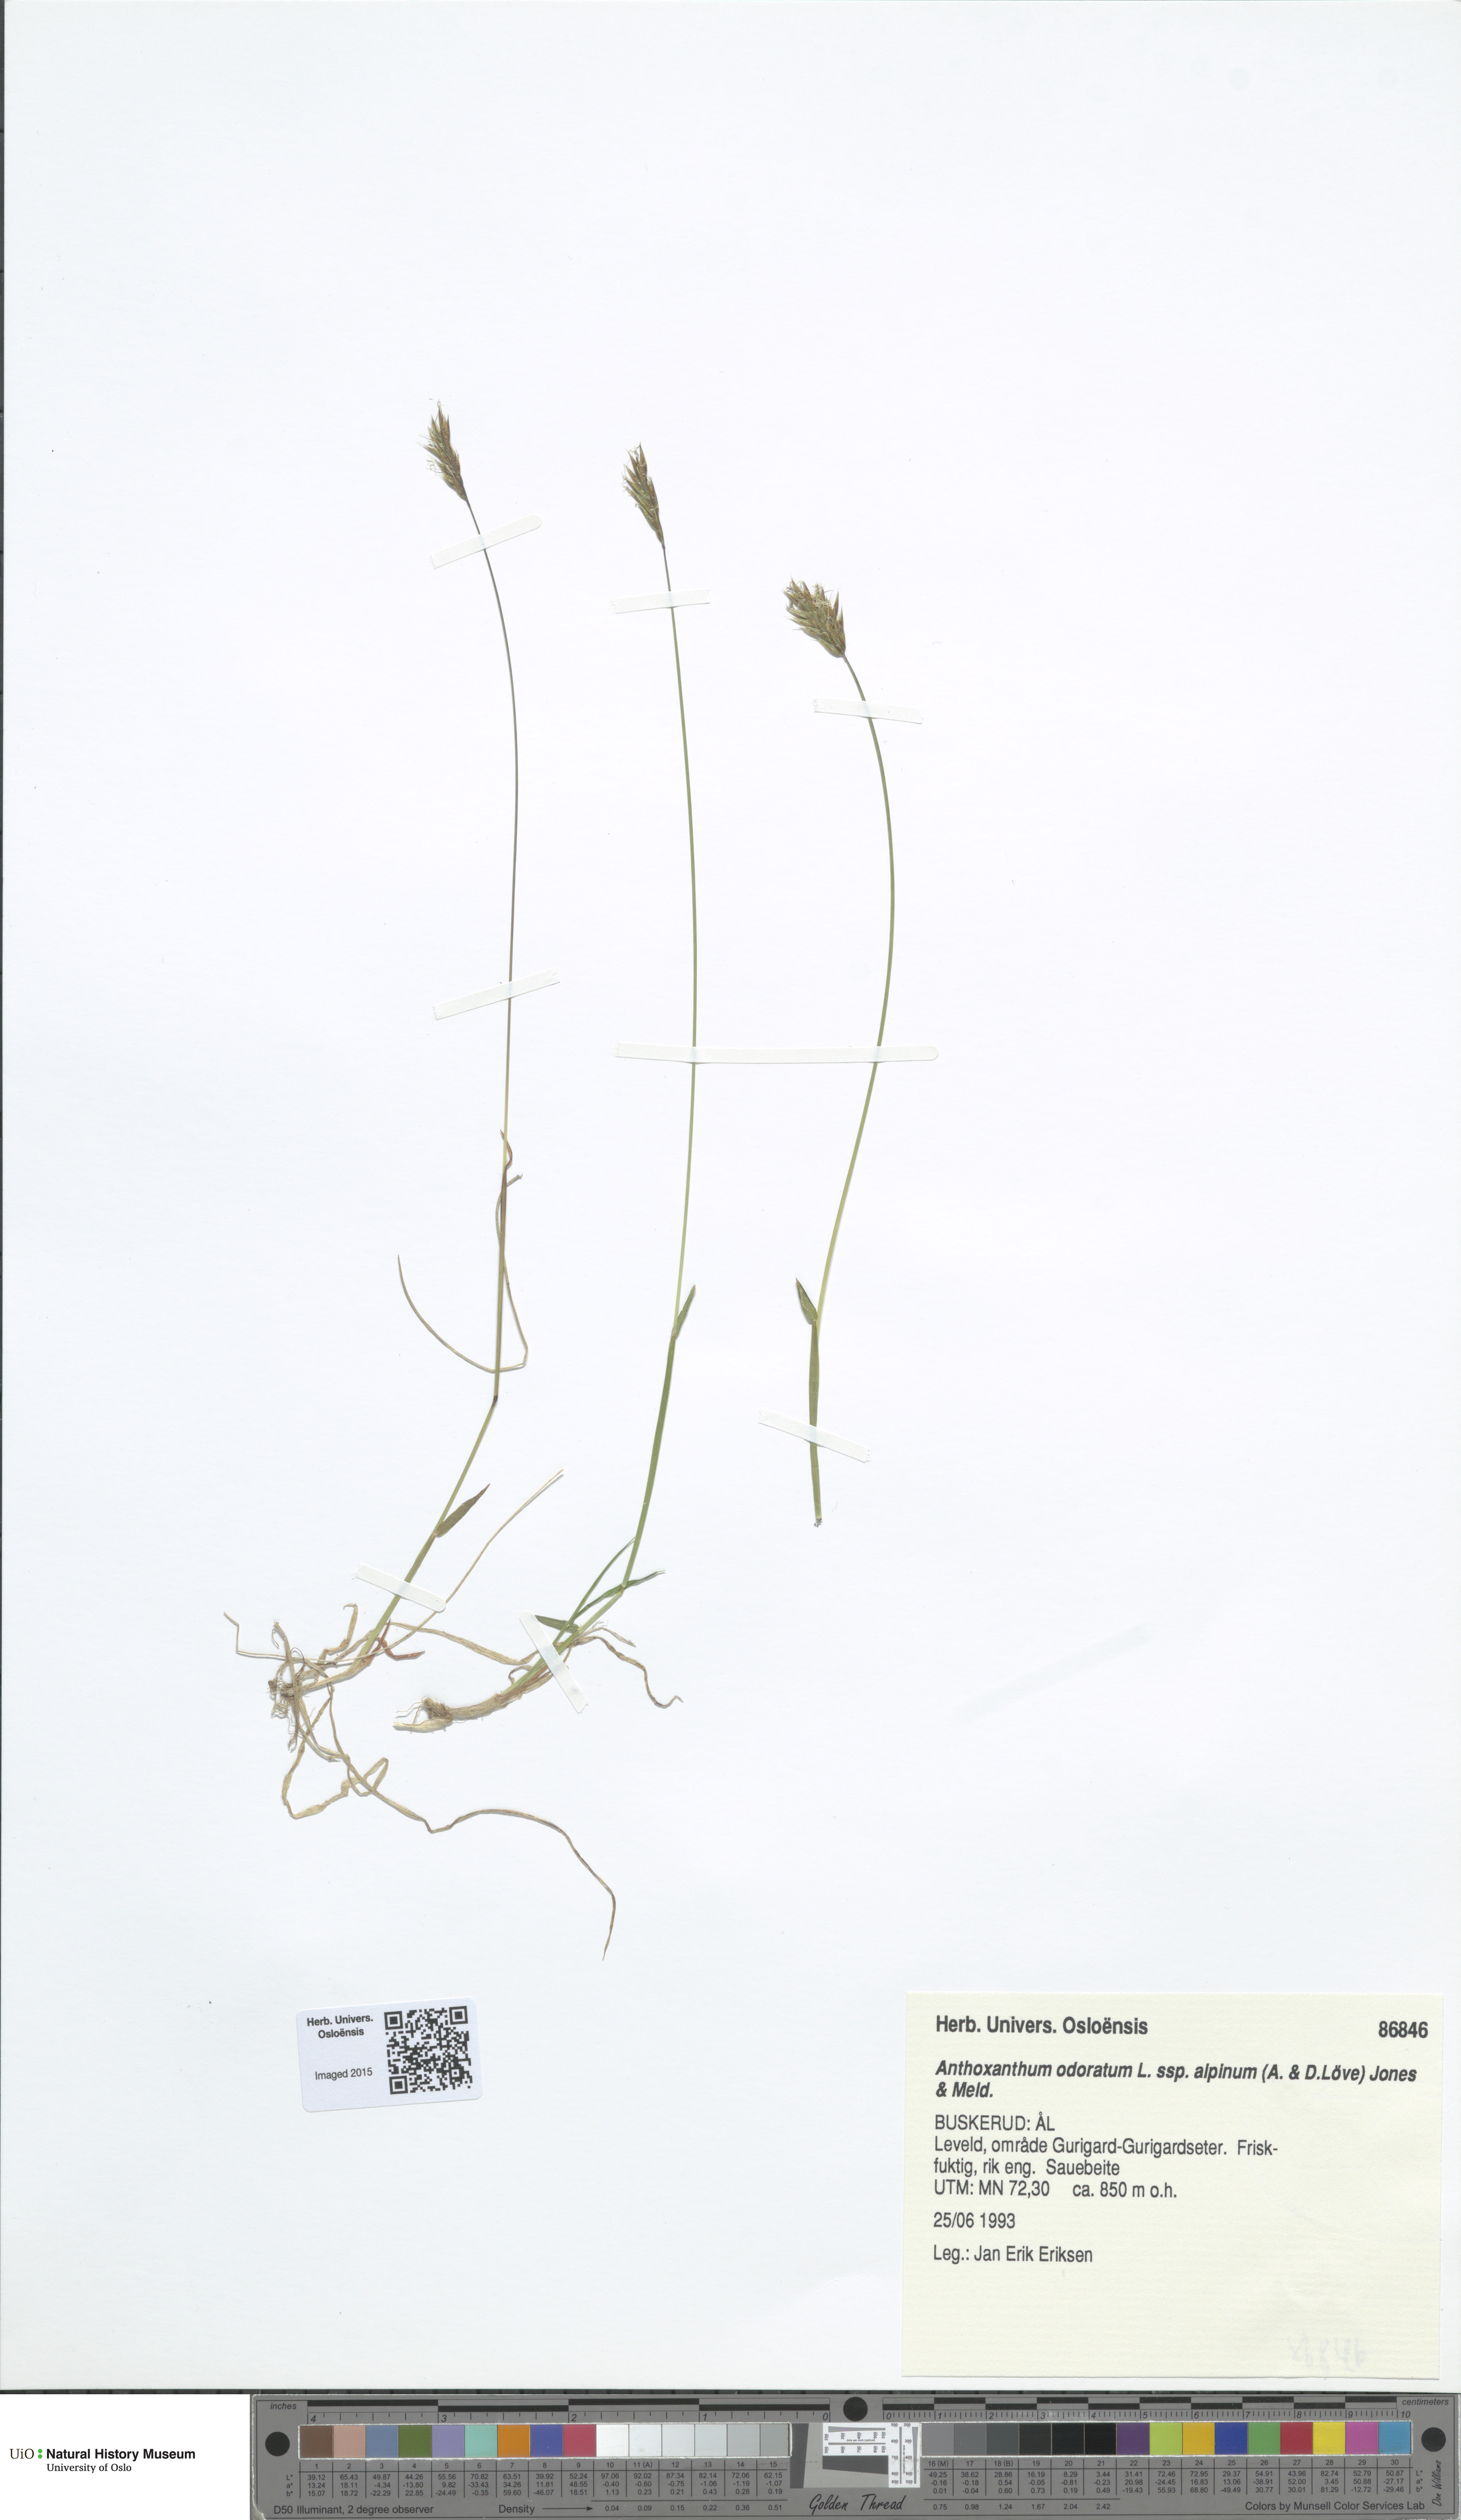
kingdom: Plantae
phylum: Tracheophyta
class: Liliopsida
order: Poales
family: Poaceae
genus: Anthoxanthum
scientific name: Anthoxanthum nipponicum
